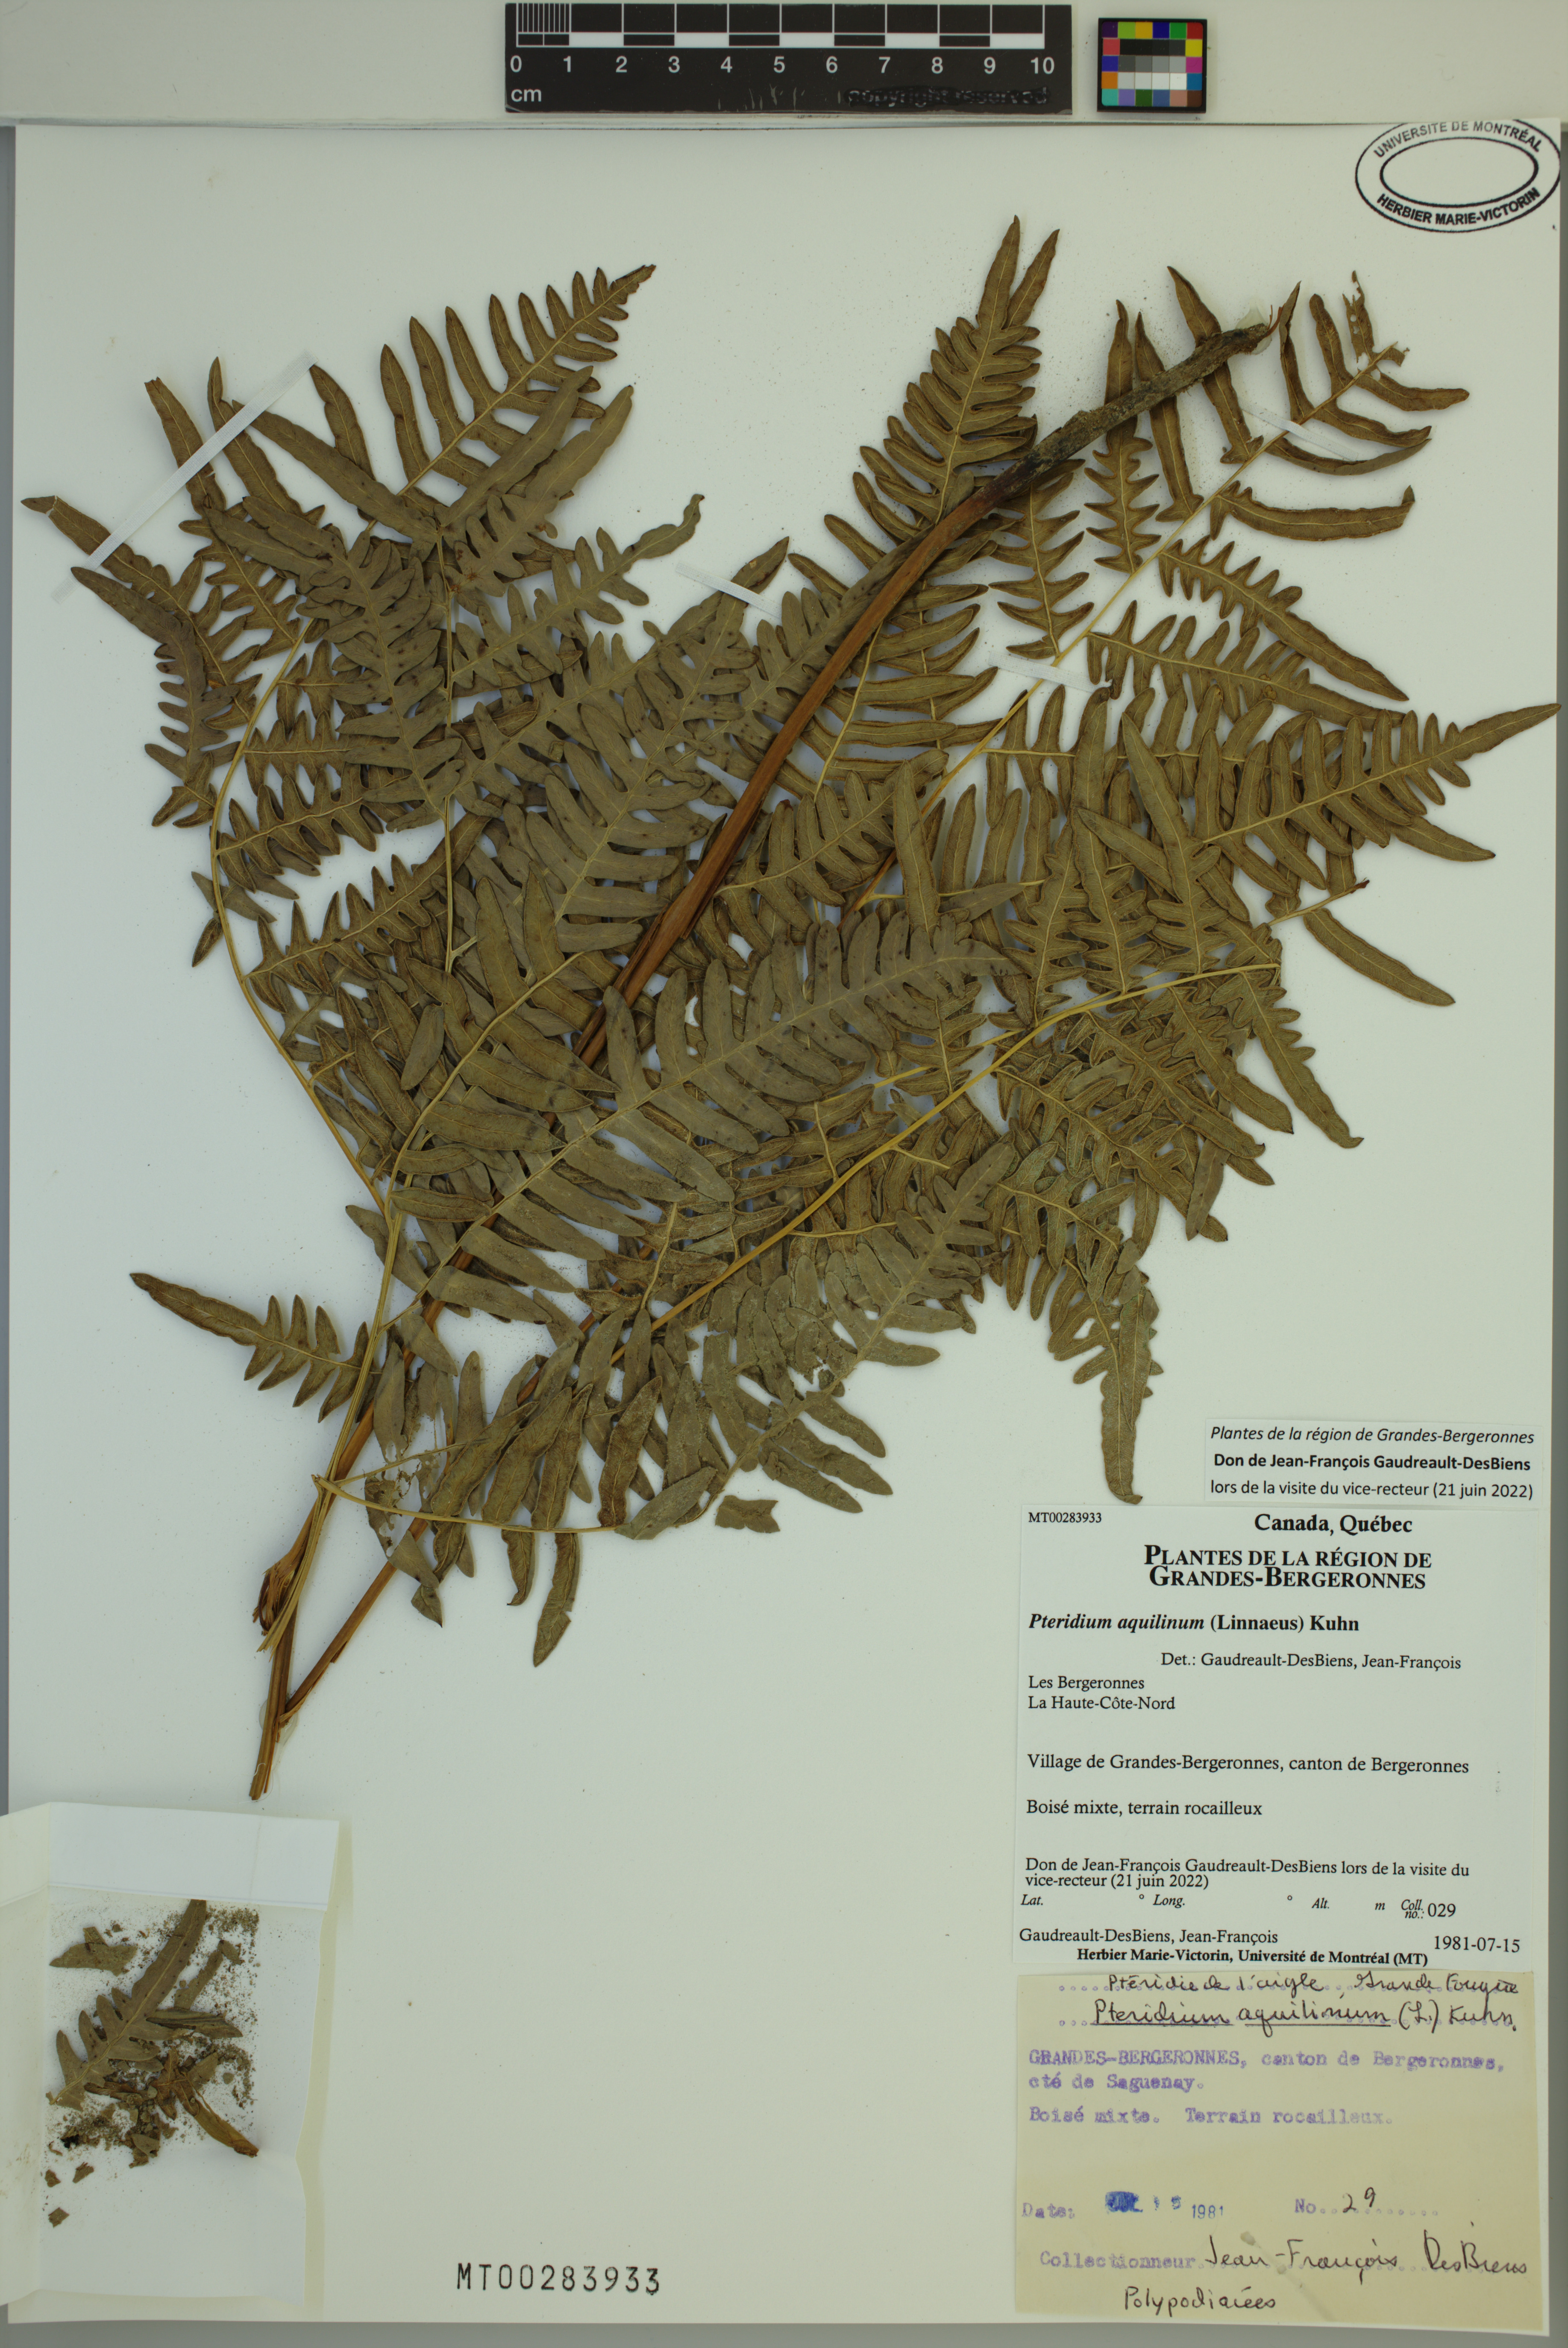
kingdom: Plantae
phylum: Tracheophyta
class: Polypodiopsida
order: Polypodiales
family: Dennstaedtiaceae
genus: Pteridium
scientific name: Pteridium aquilinum
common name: Bracken
